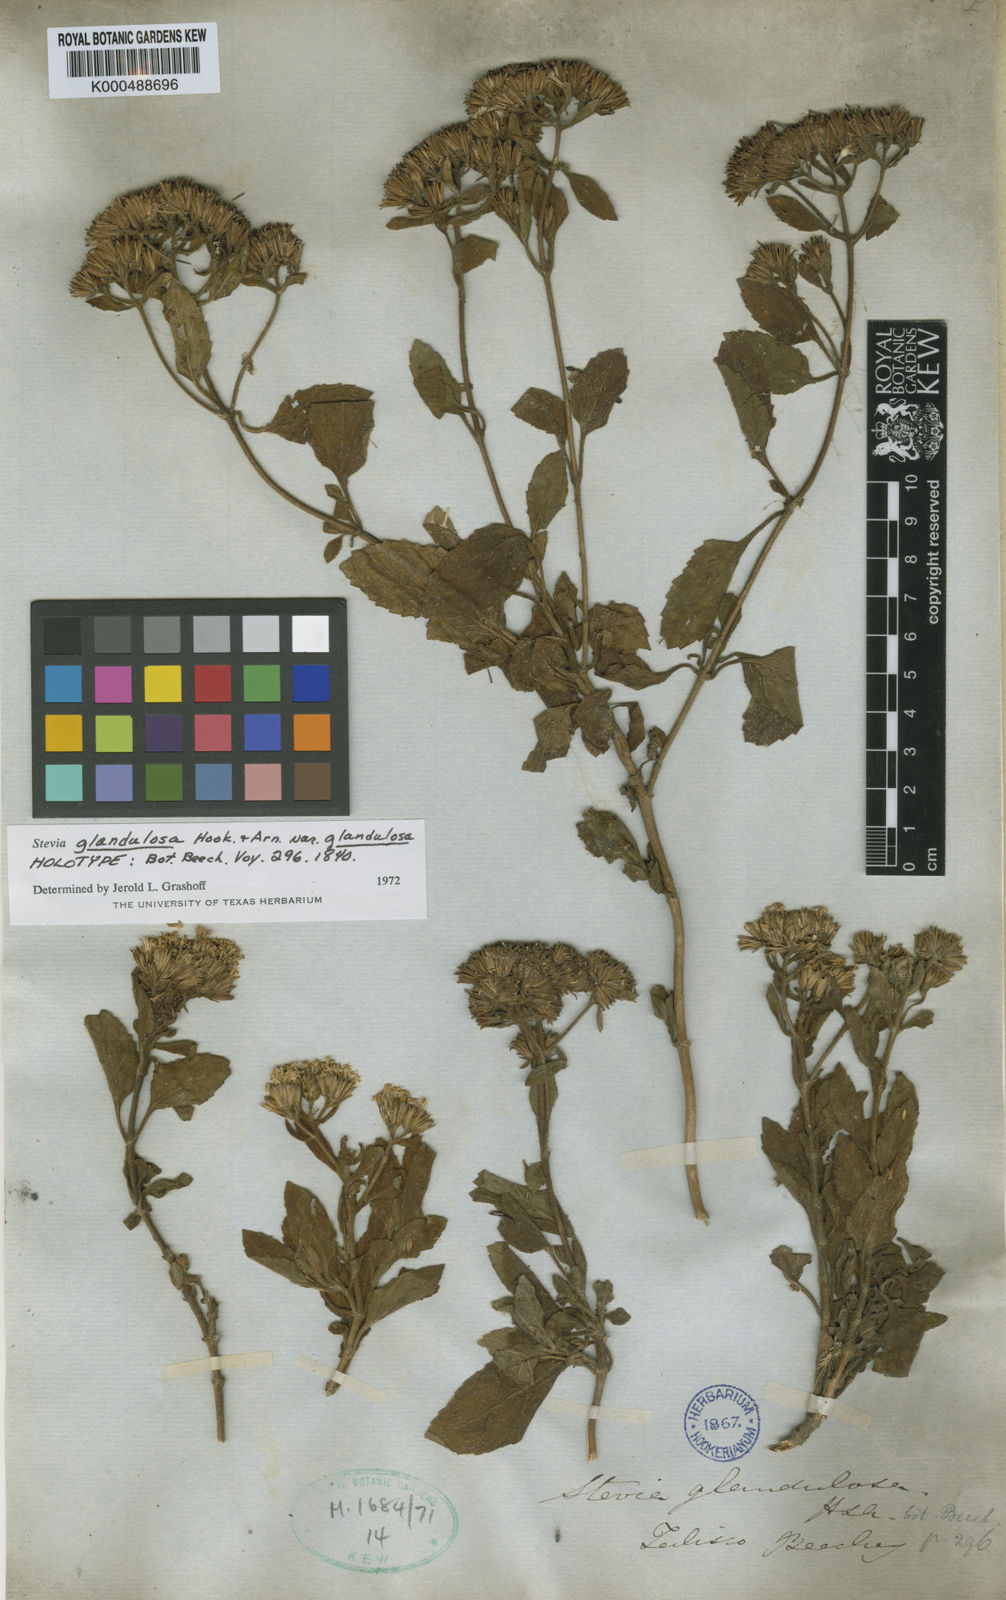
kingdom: Plantae
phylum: Tracheophyta
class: Magnoliopsida
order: Asterales
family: Asteraceae
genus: Stevia
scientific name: Stevia glandulosa
